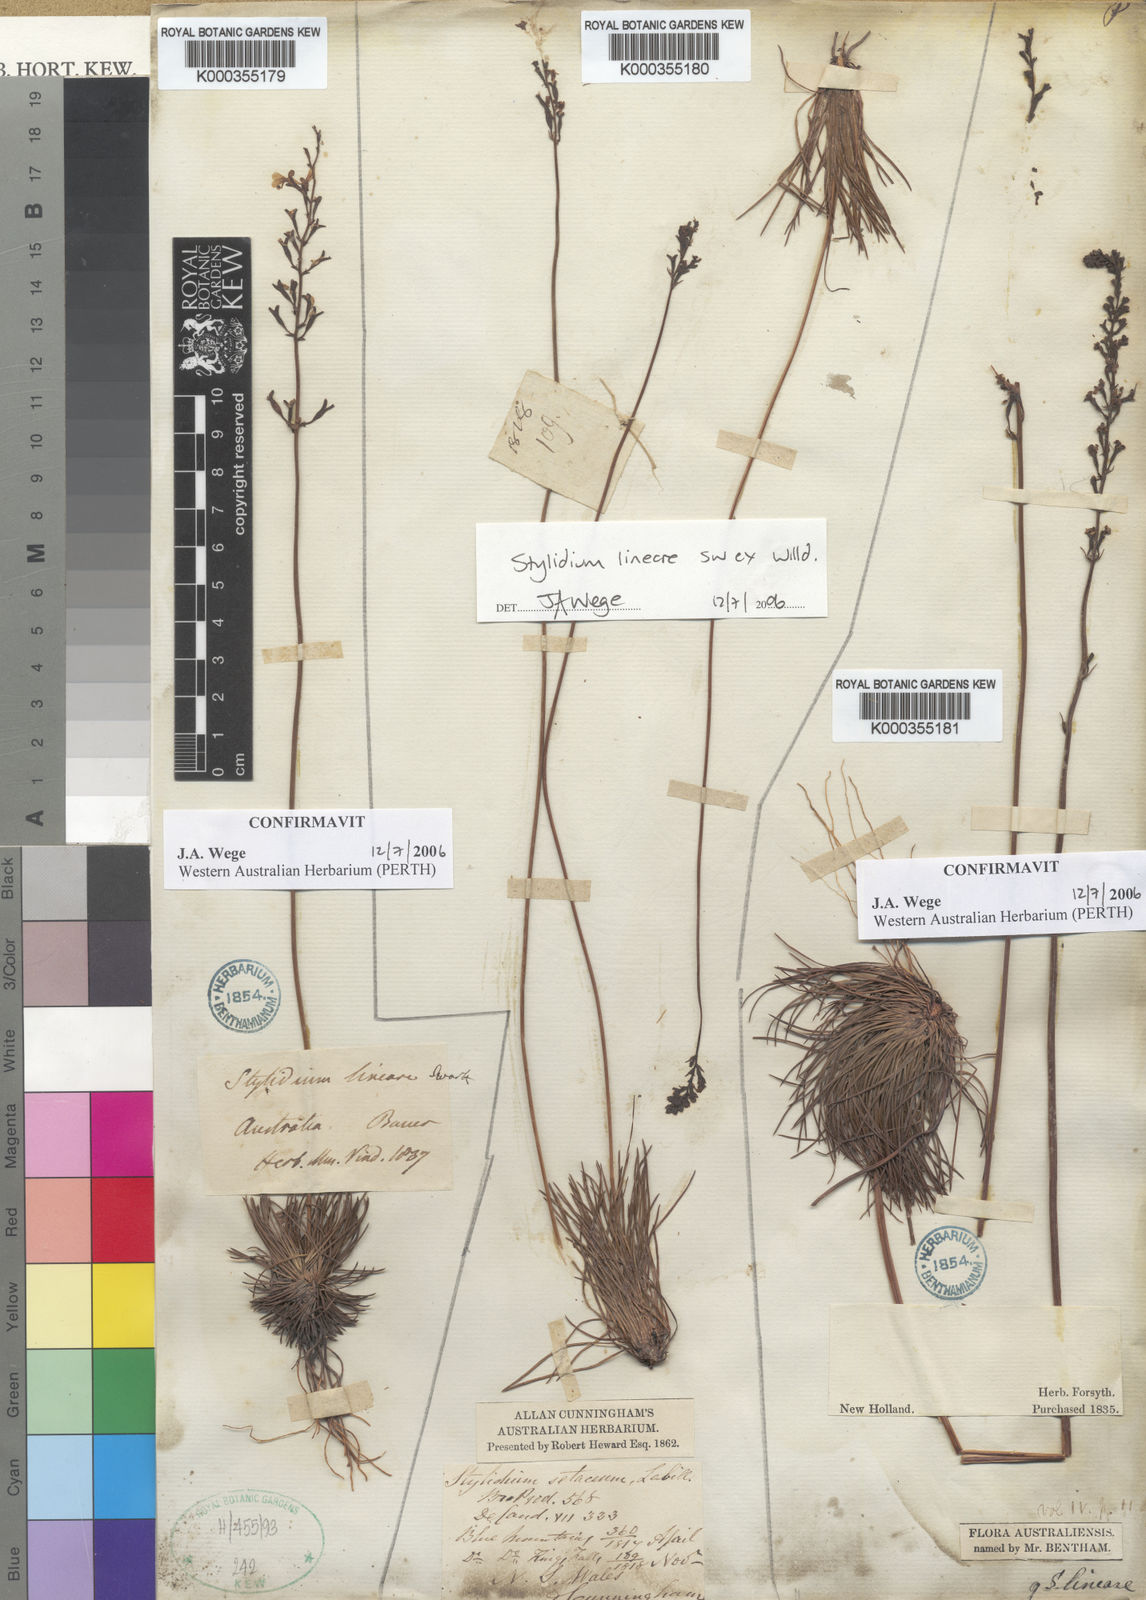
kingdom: Plantae
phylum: Tracheophyta
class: Magnoliopsida
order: Asterales
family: Stylidiaceae
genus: Stylidium
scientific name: Stylidium lineare
